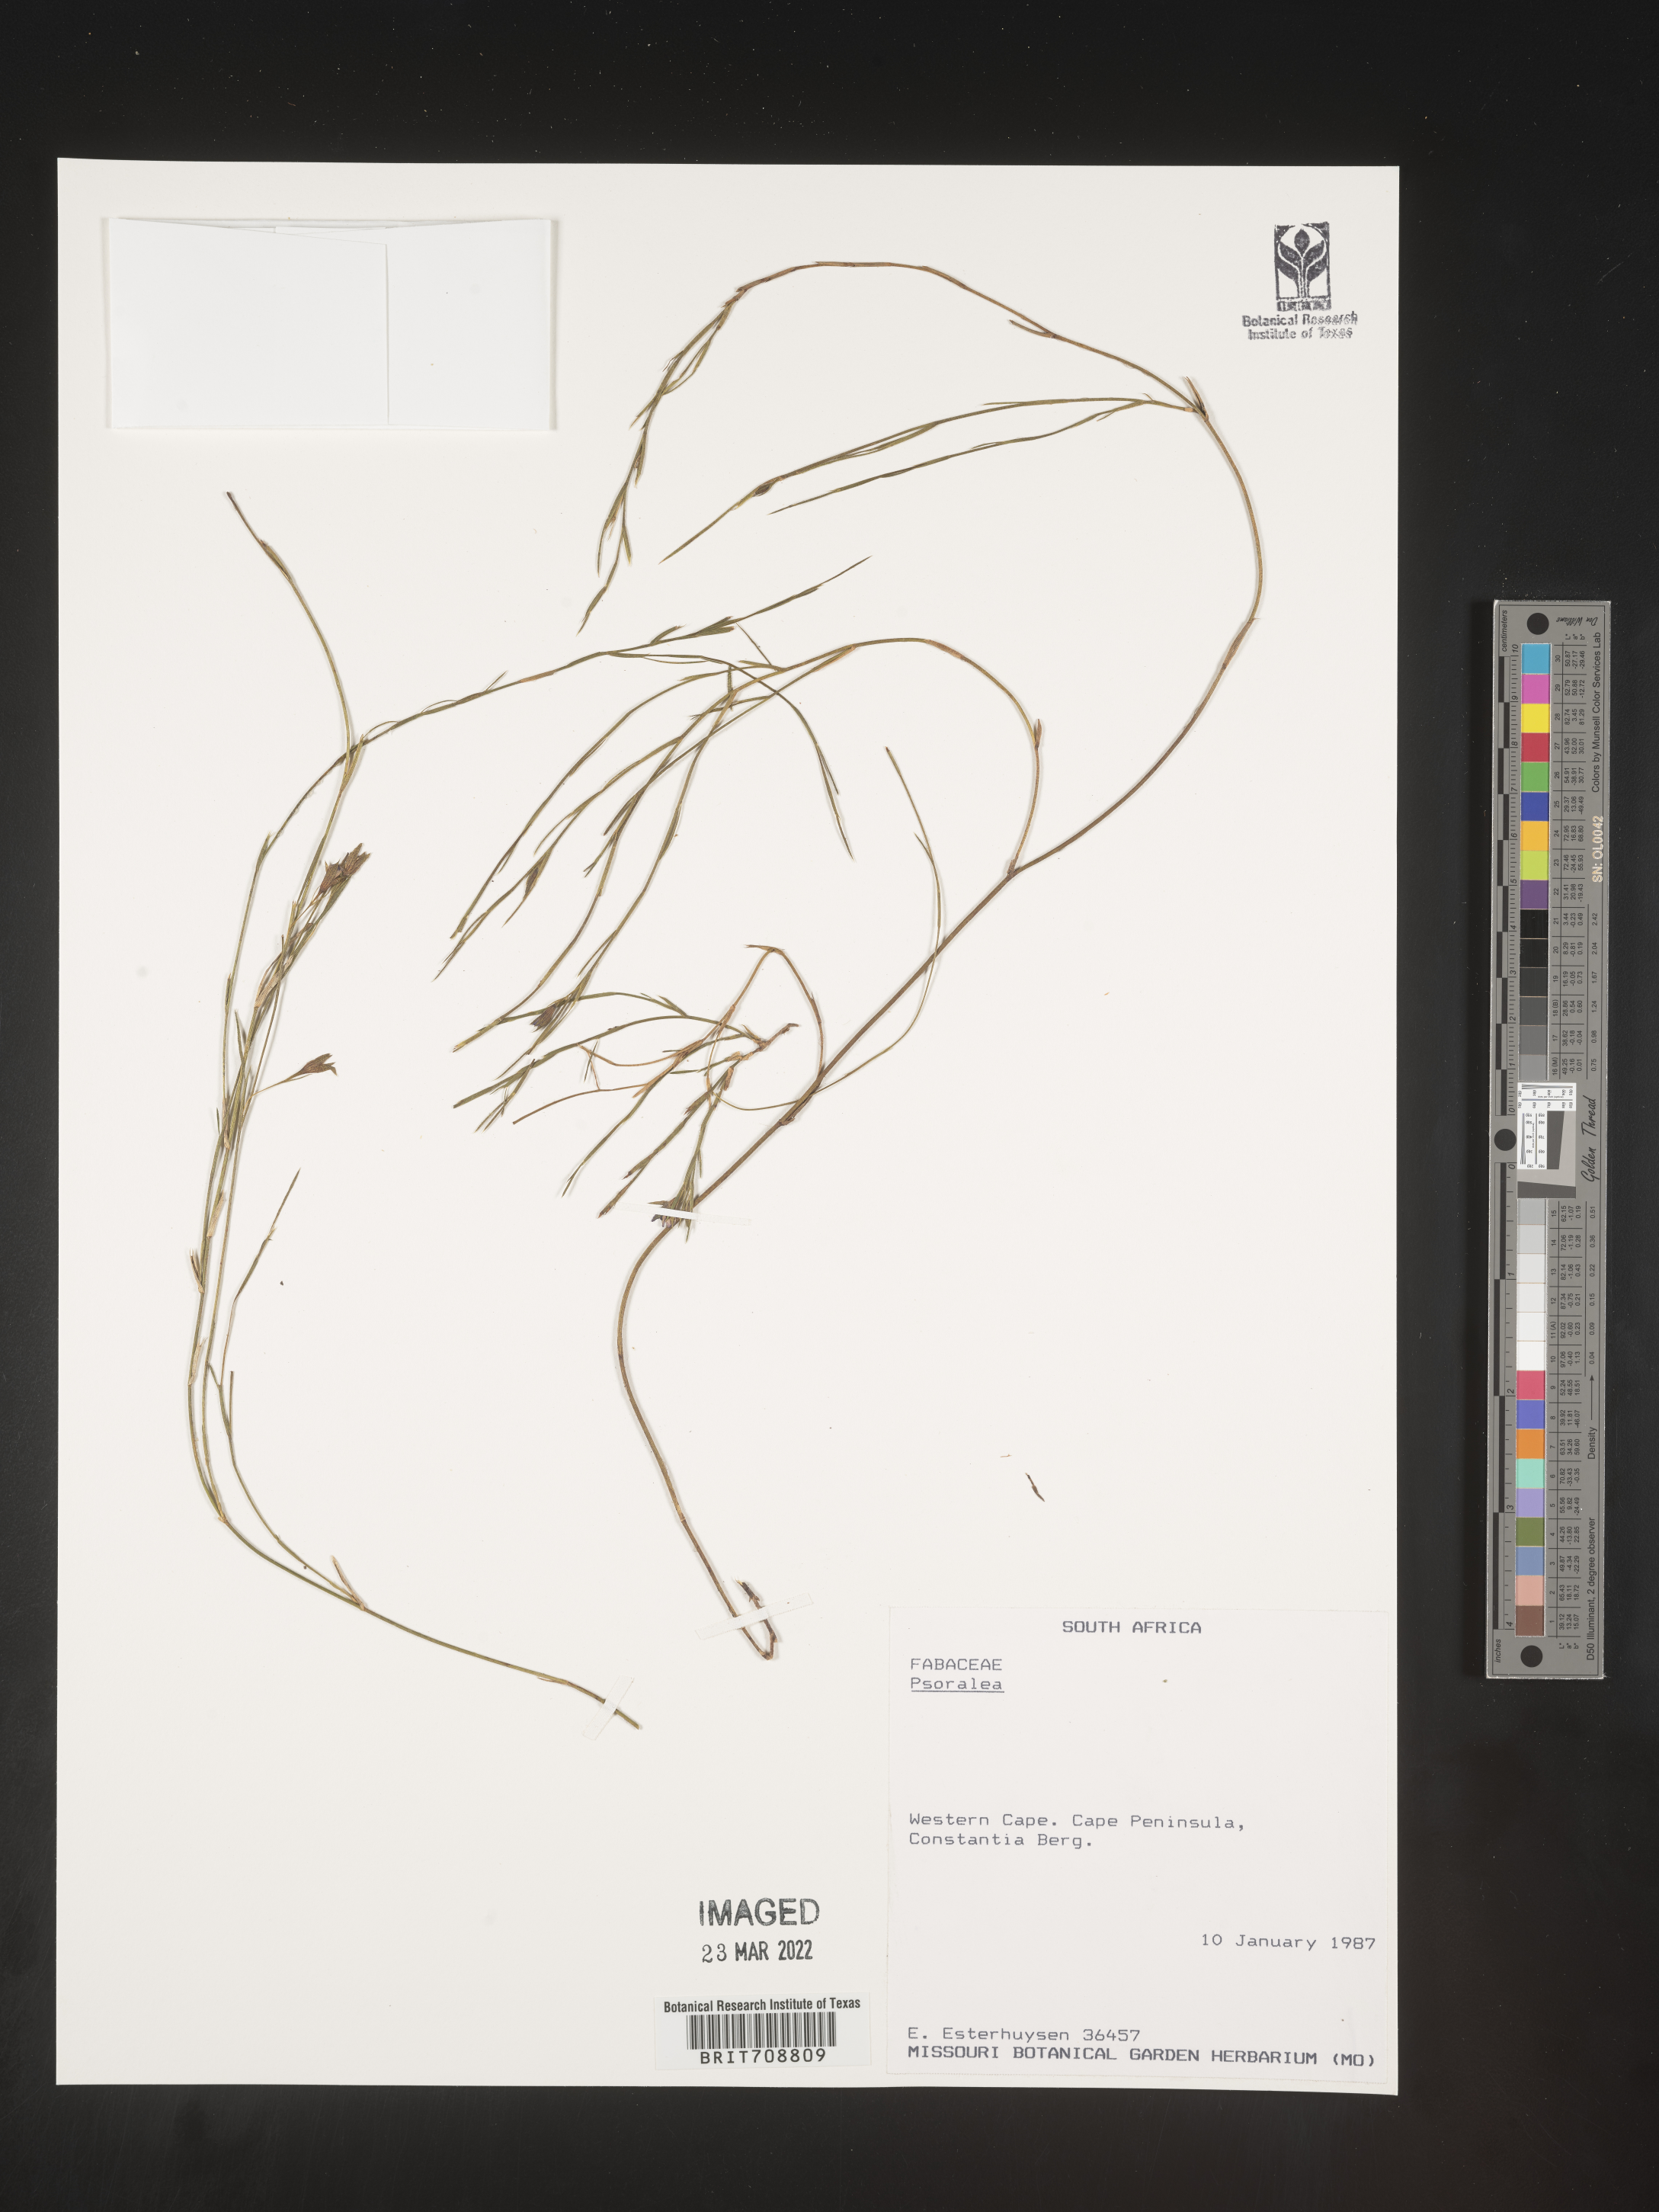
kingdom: Plantae
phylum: Tracheophyta
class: Magnoliopsida
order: Fabales
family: Fabaceae
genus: Psoralea
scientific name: Psoralea
